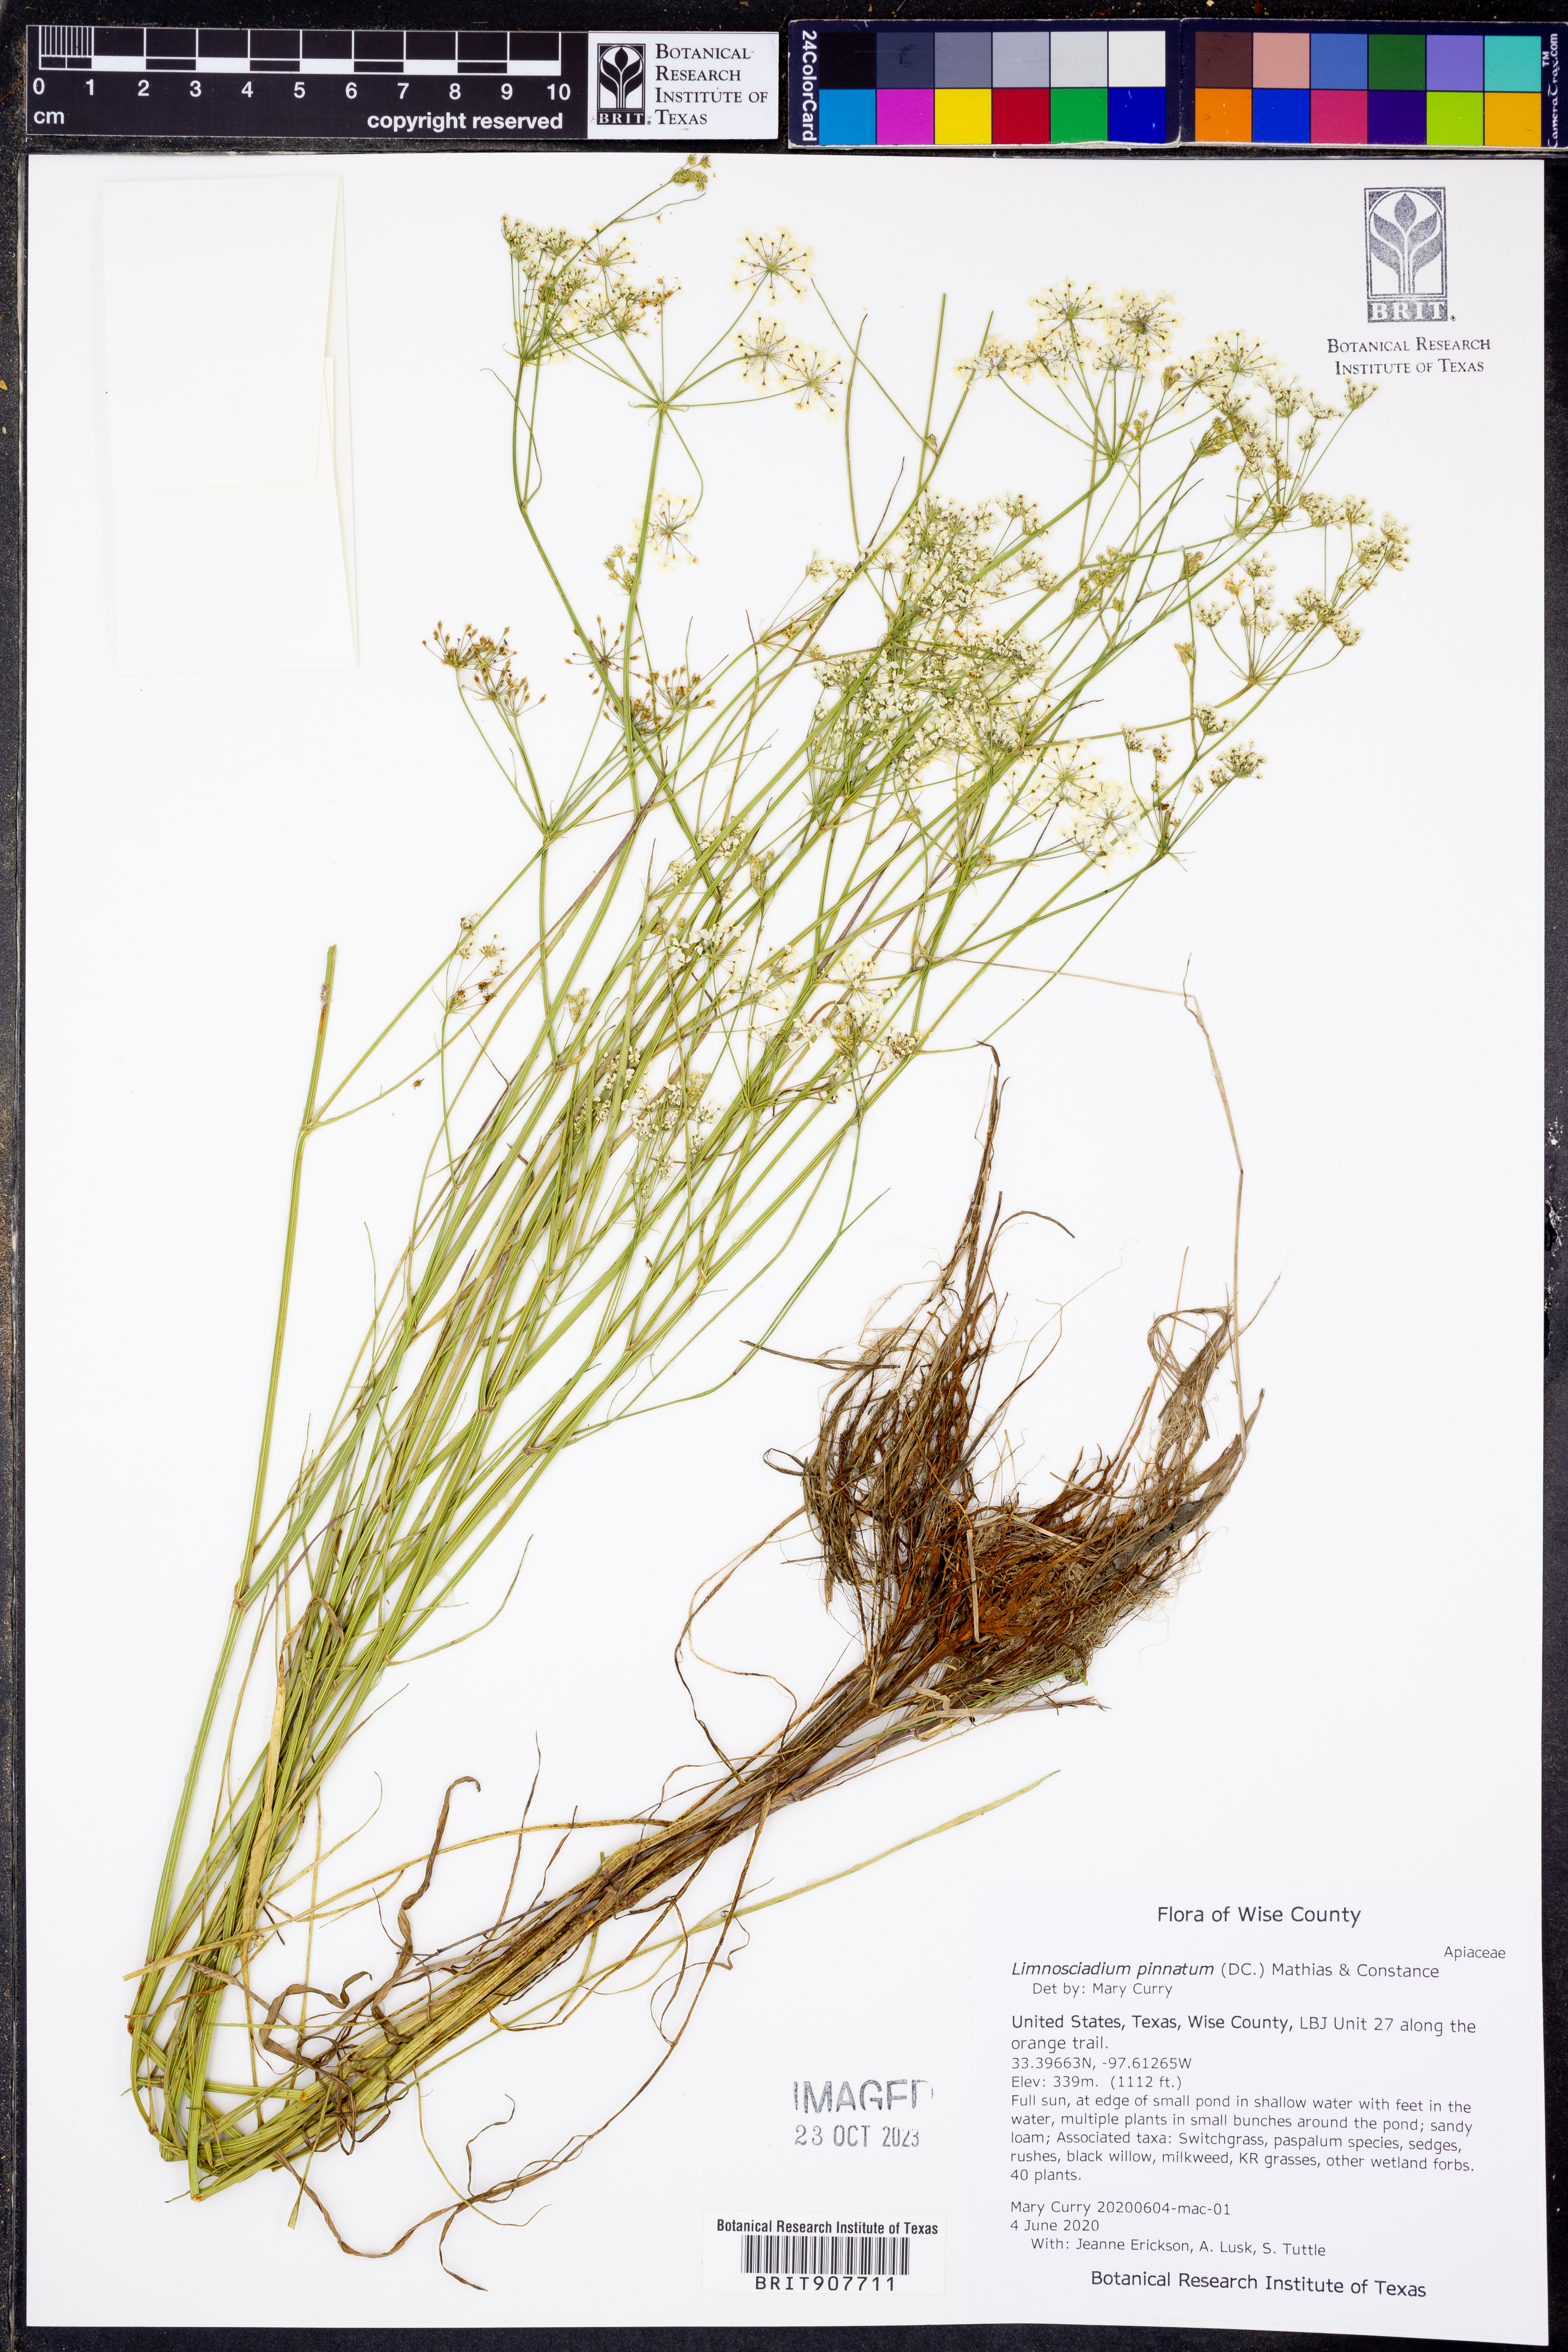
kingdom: Plantae
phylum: Tracheophyta
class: Magnoliopsida
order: Apiales
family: Apiaceae
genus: Limnosciadium
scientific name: Limnosciadium pinnatum
